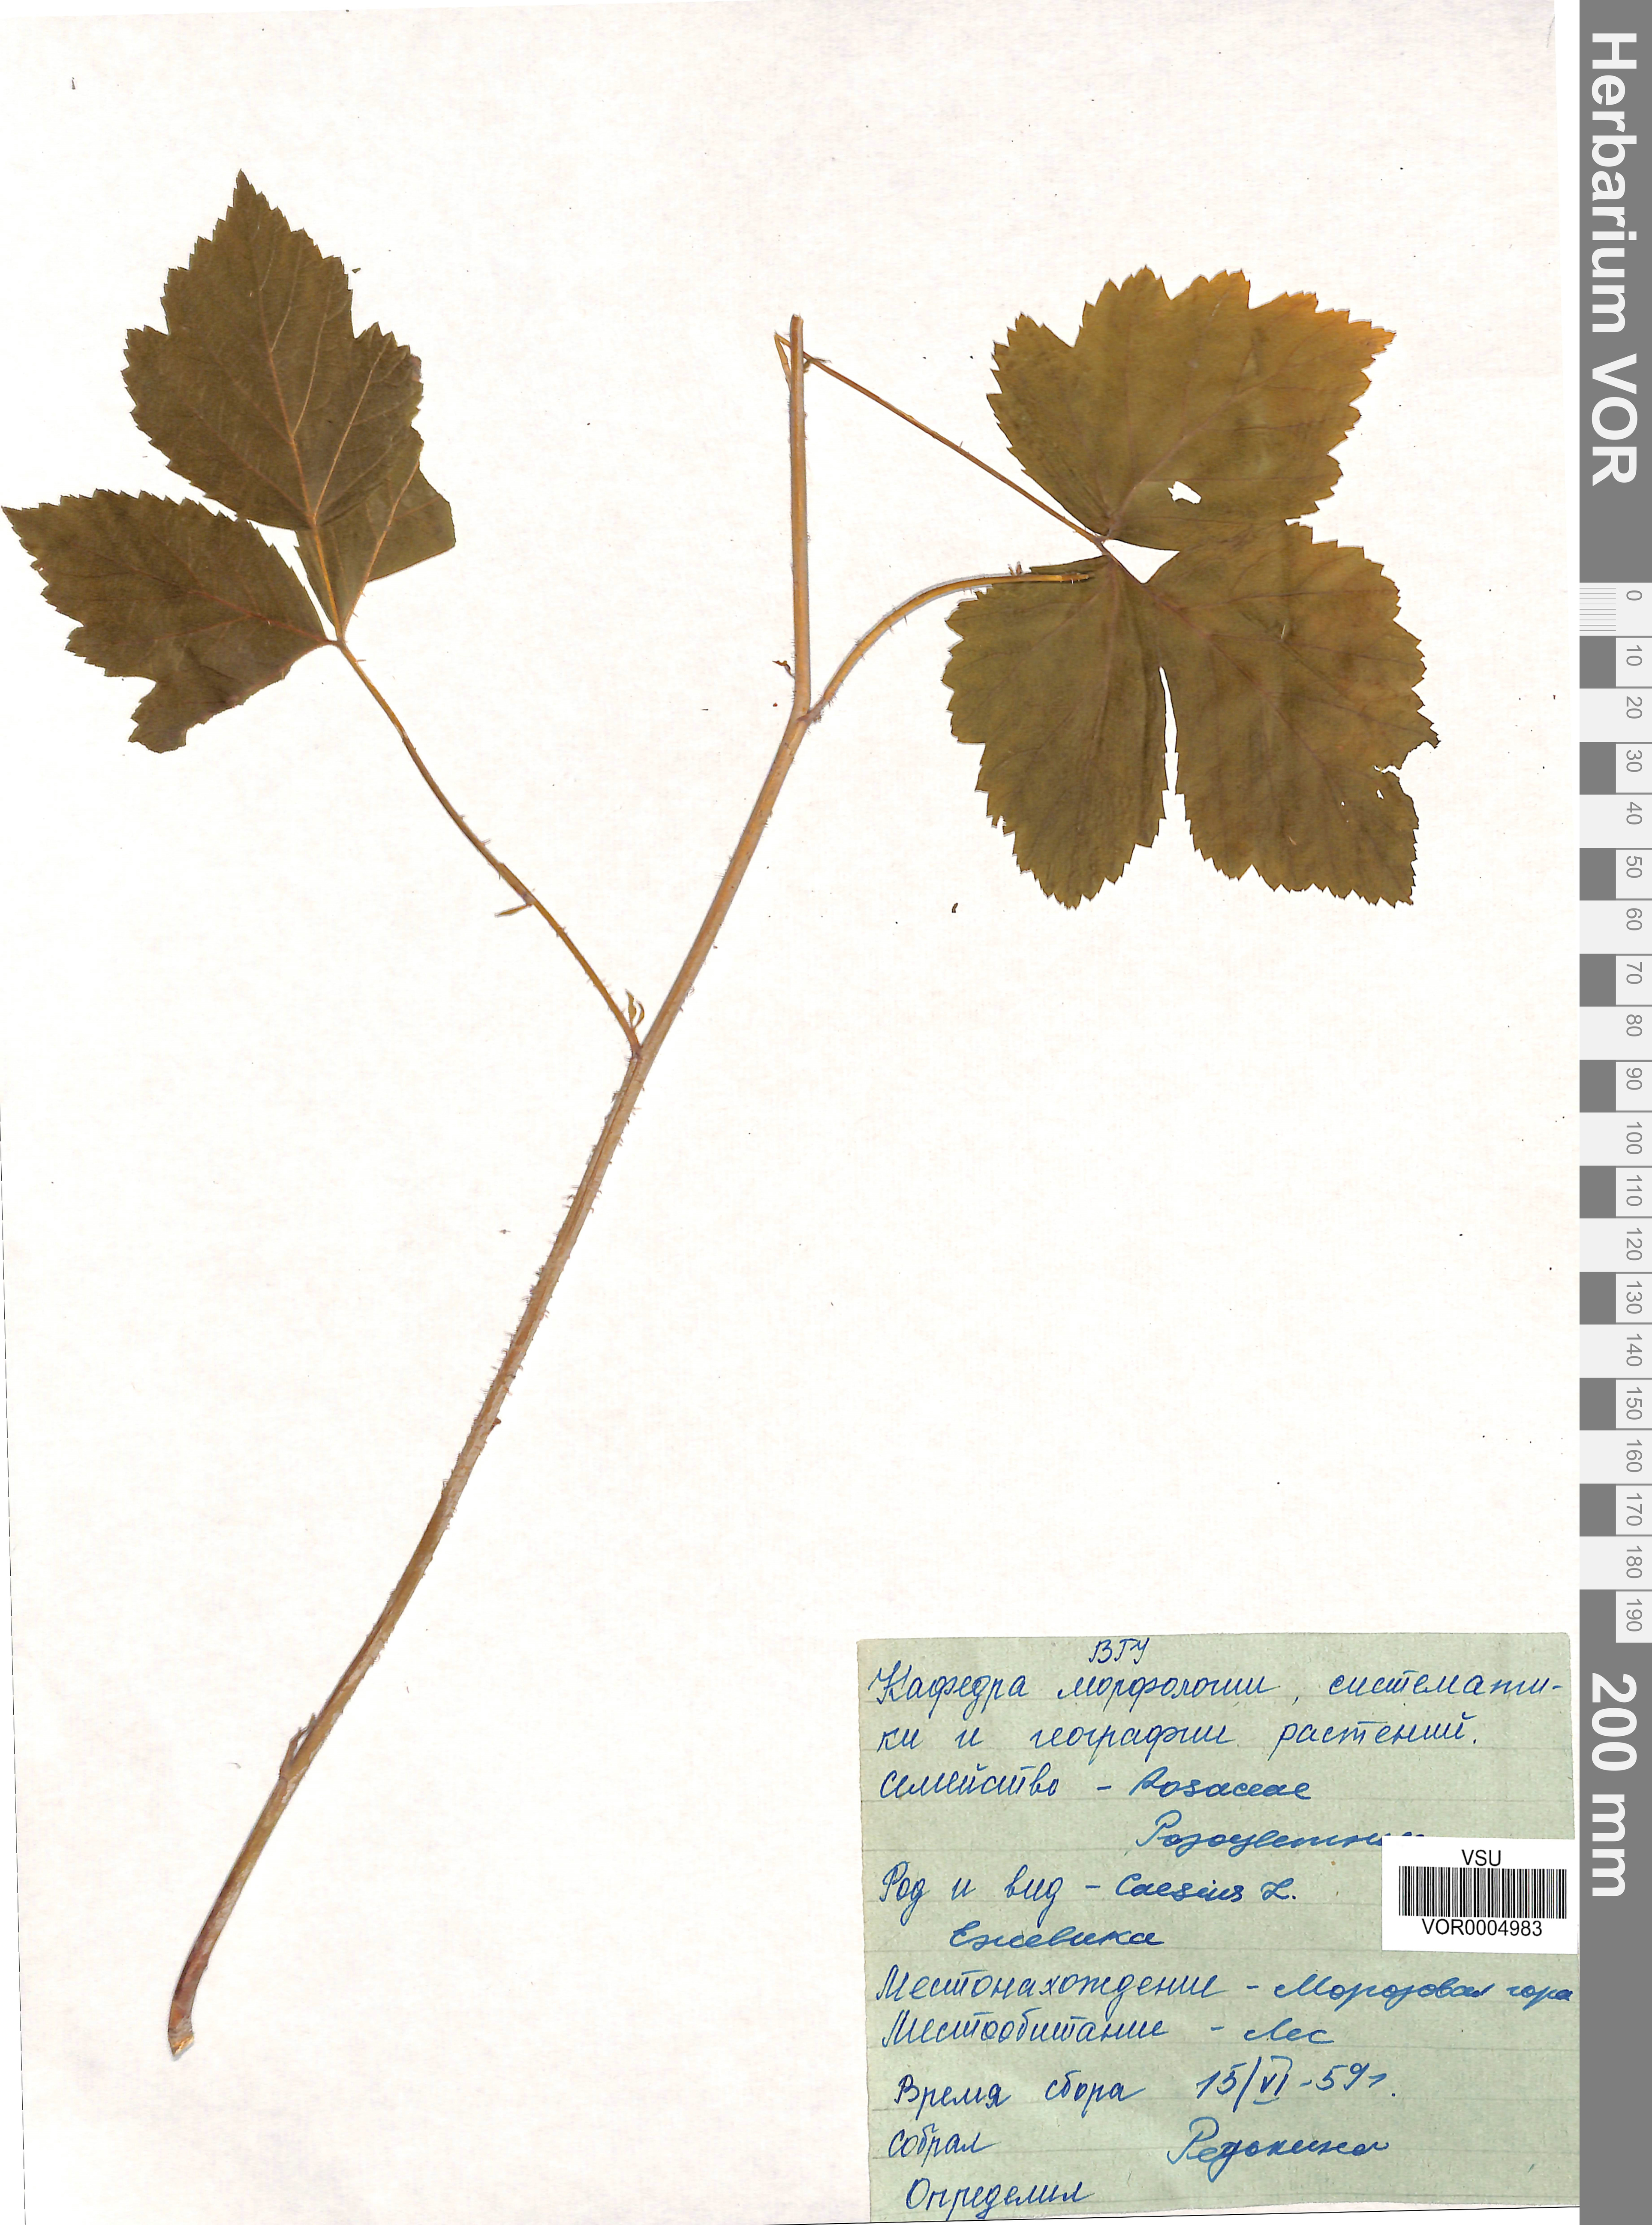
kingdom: Plantae
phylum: Tracheophyta
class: Magnoliopsida
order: Rosales
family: Rosaceae
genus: Rubus
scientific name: Rubus caesius
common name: Dewberry
